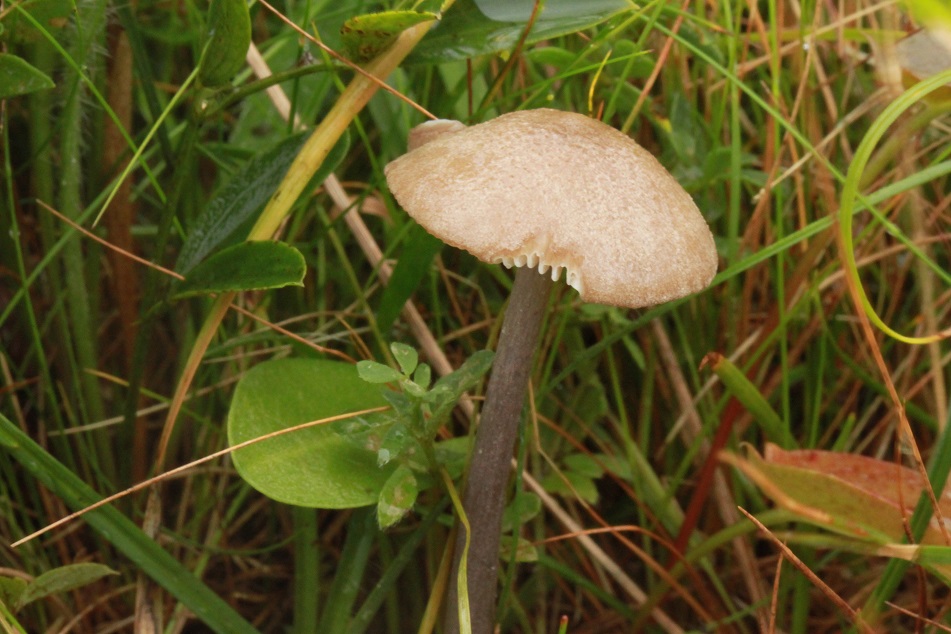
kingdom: Fungi
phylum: Basidiomycota
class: Agaricomycetes
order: Agaricales
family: Entolomataceae
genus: Entoloma
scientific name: Entoloma griseocyaneum
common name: gråblå rødblad
